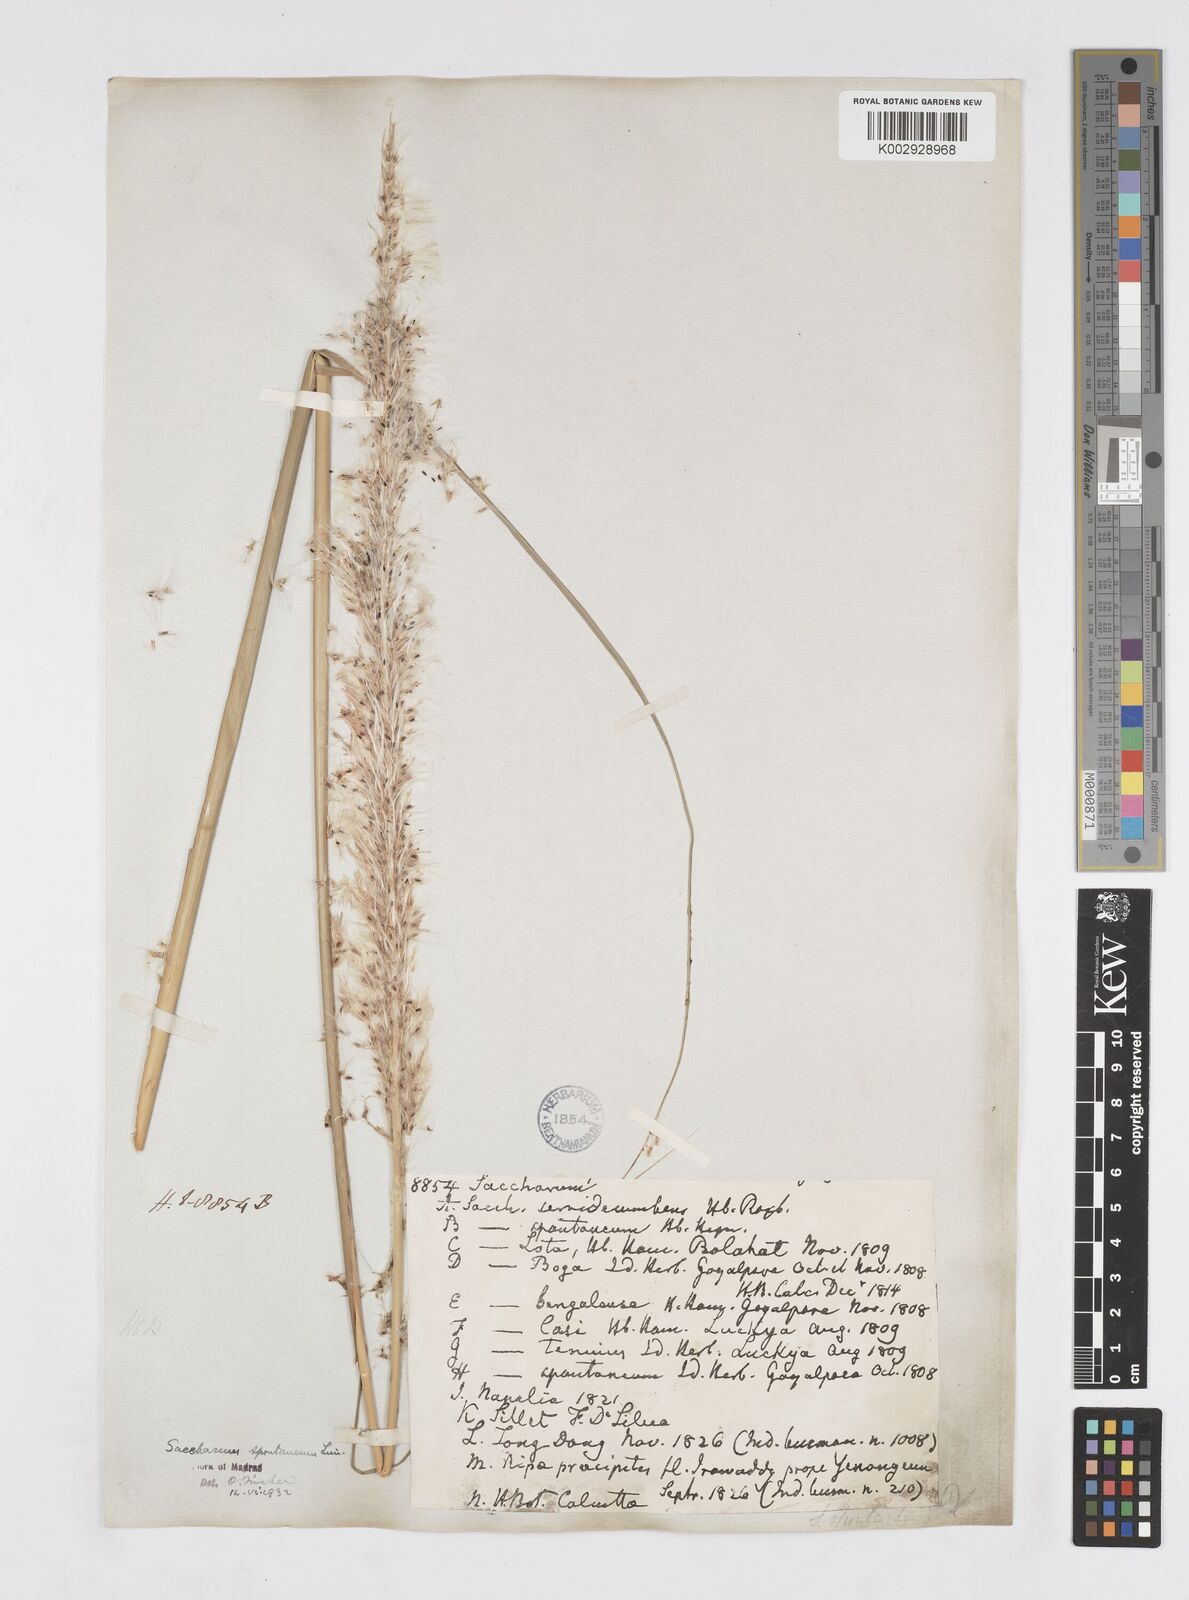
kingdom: Plantae
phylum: Tracheophyta
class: Liliopsida
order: Poales
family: Poaceae
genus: Saccharum
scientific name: Saccharum spontaneum
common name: Wild sugarcane
